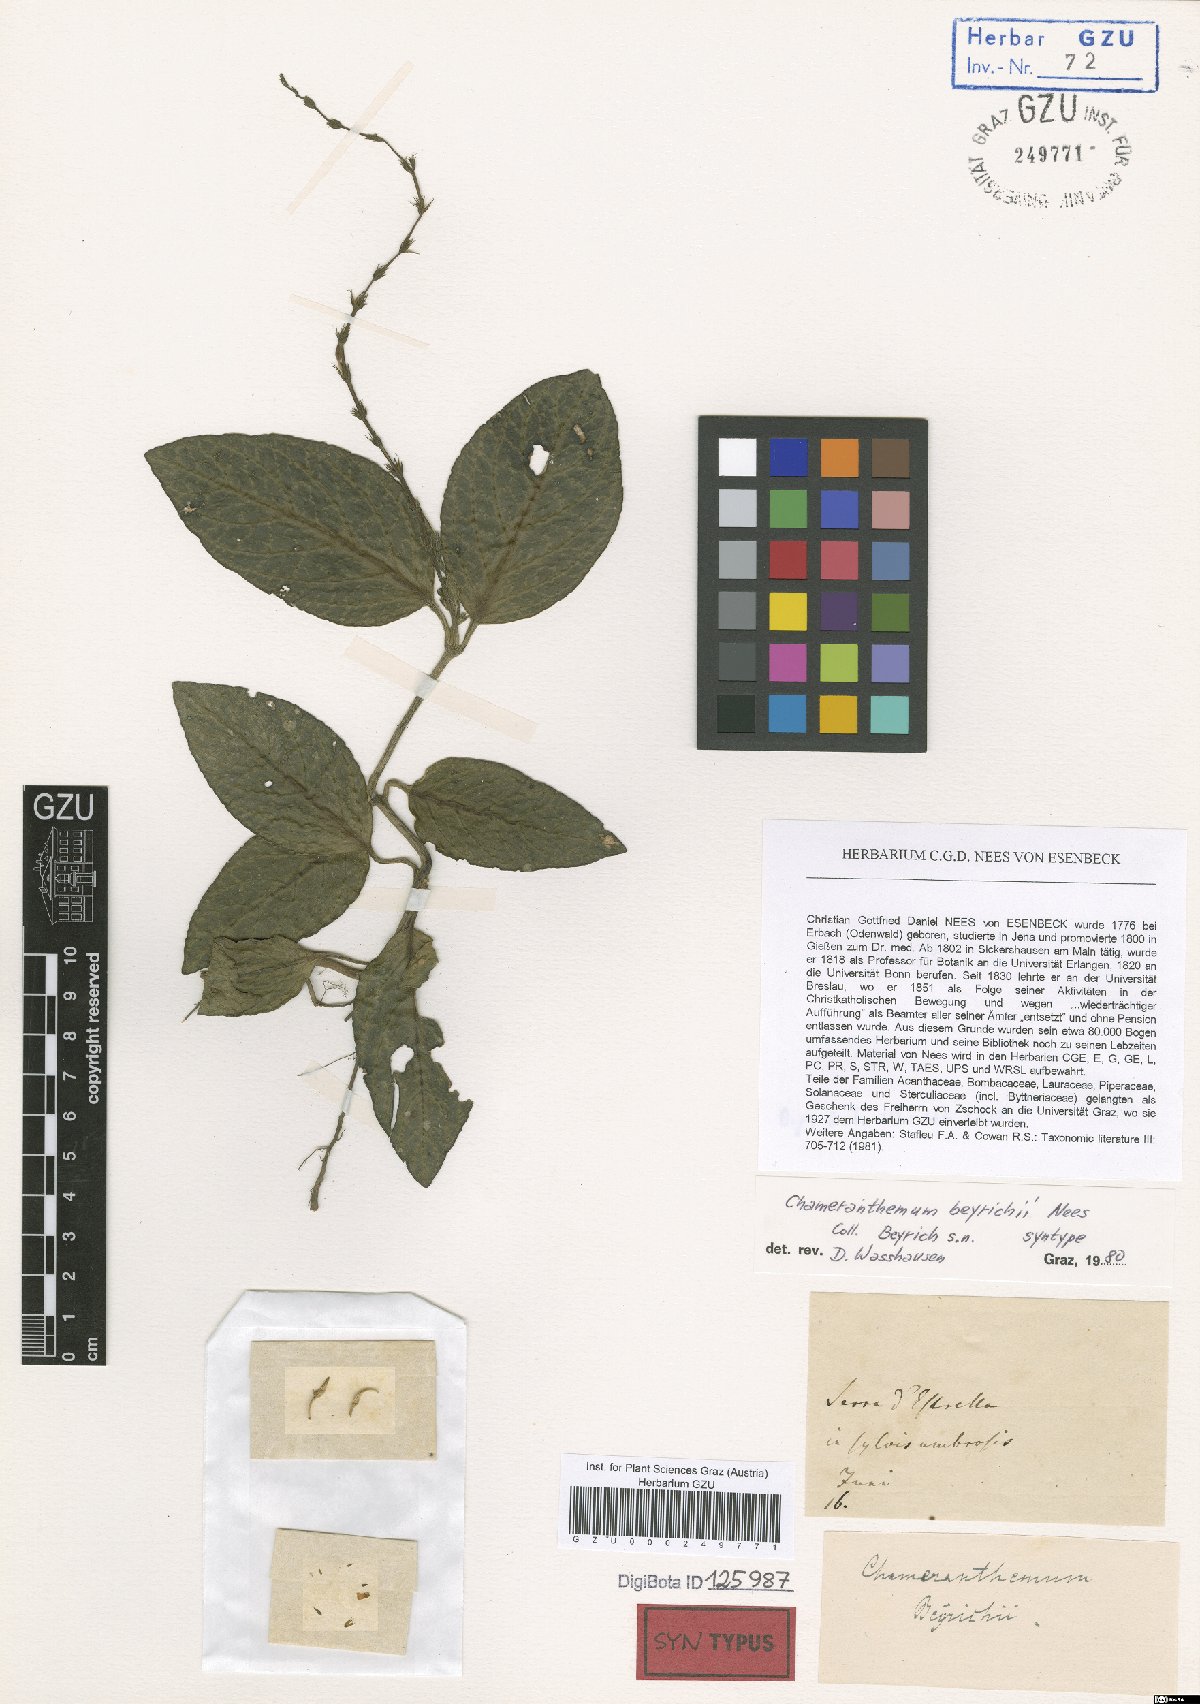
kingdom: Plantae
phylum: Tracheophyta
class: Magnoliopsida
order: Lamiales
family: Acanthaceae
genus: Chamaeranthemum
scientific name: Chamaeranthemum beyrichii
